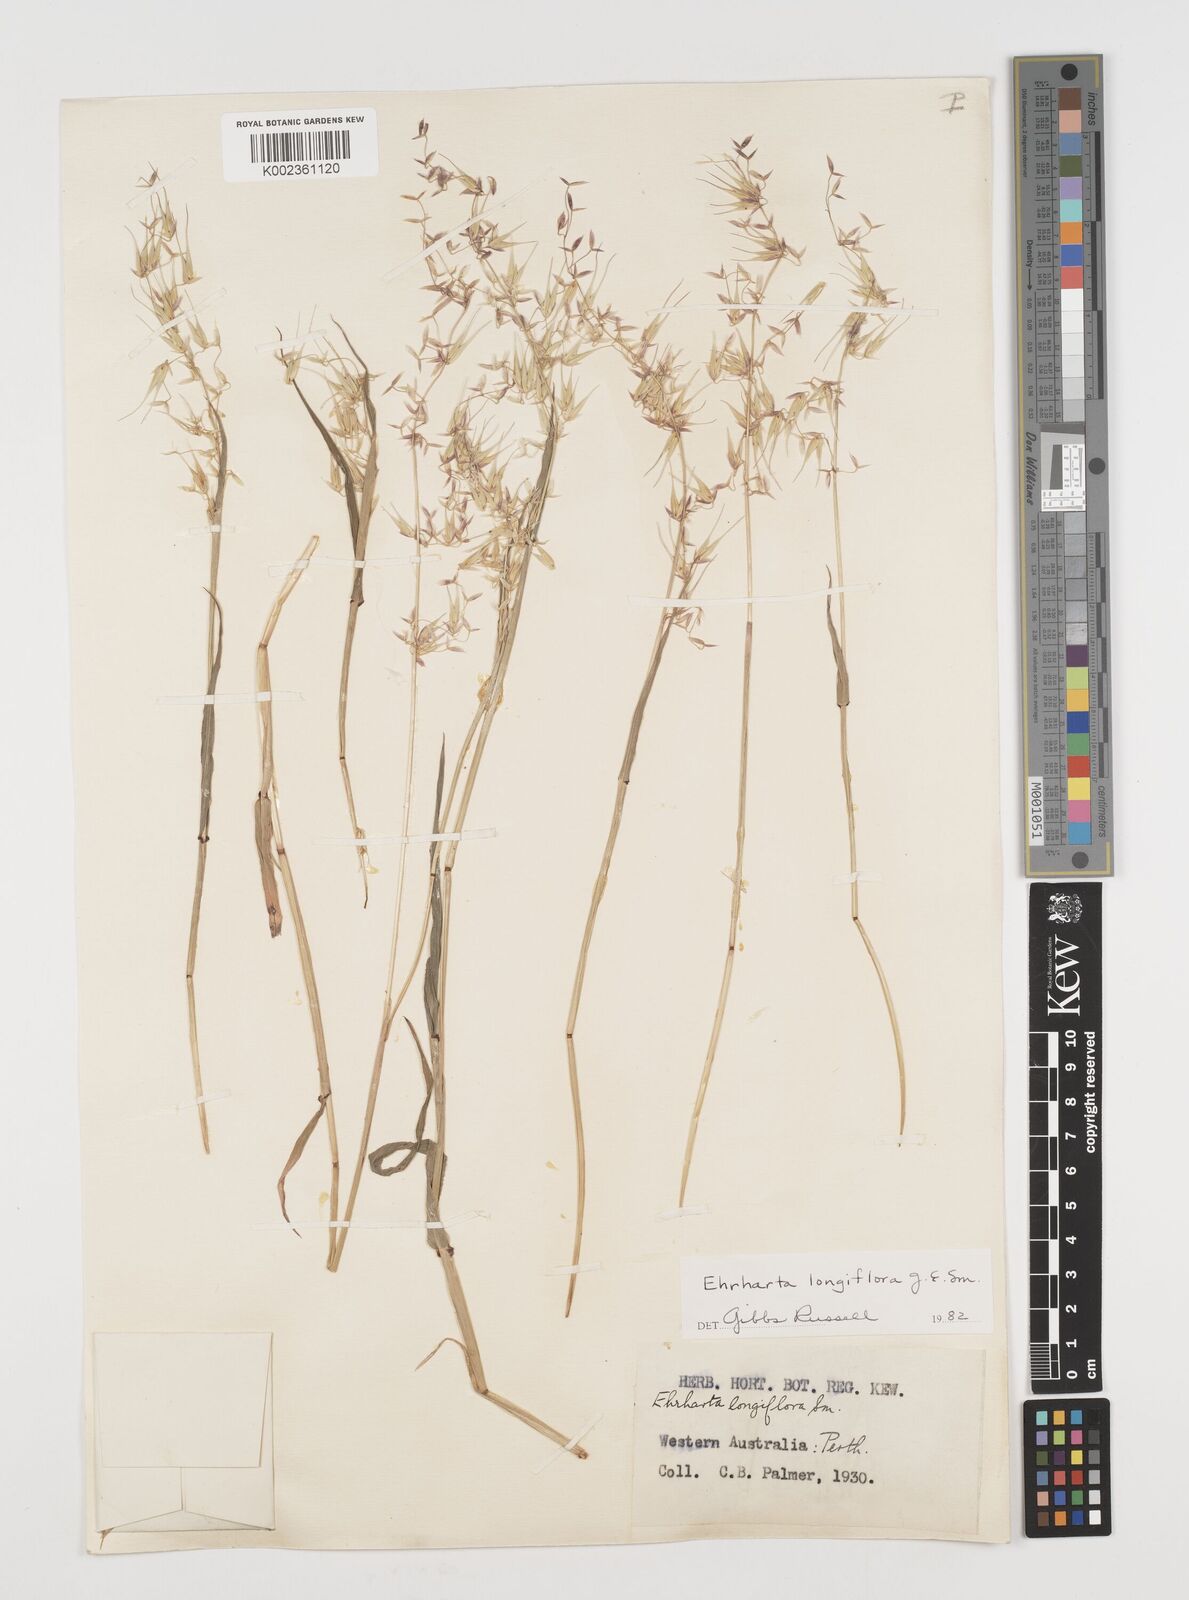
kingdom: Plantae
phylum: Tracheophyta
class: Liliopsida
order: Poales
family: Poaceae
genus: Ehrharta
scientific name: Ehrharta longiflora
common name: Longflowered veldtgrass
